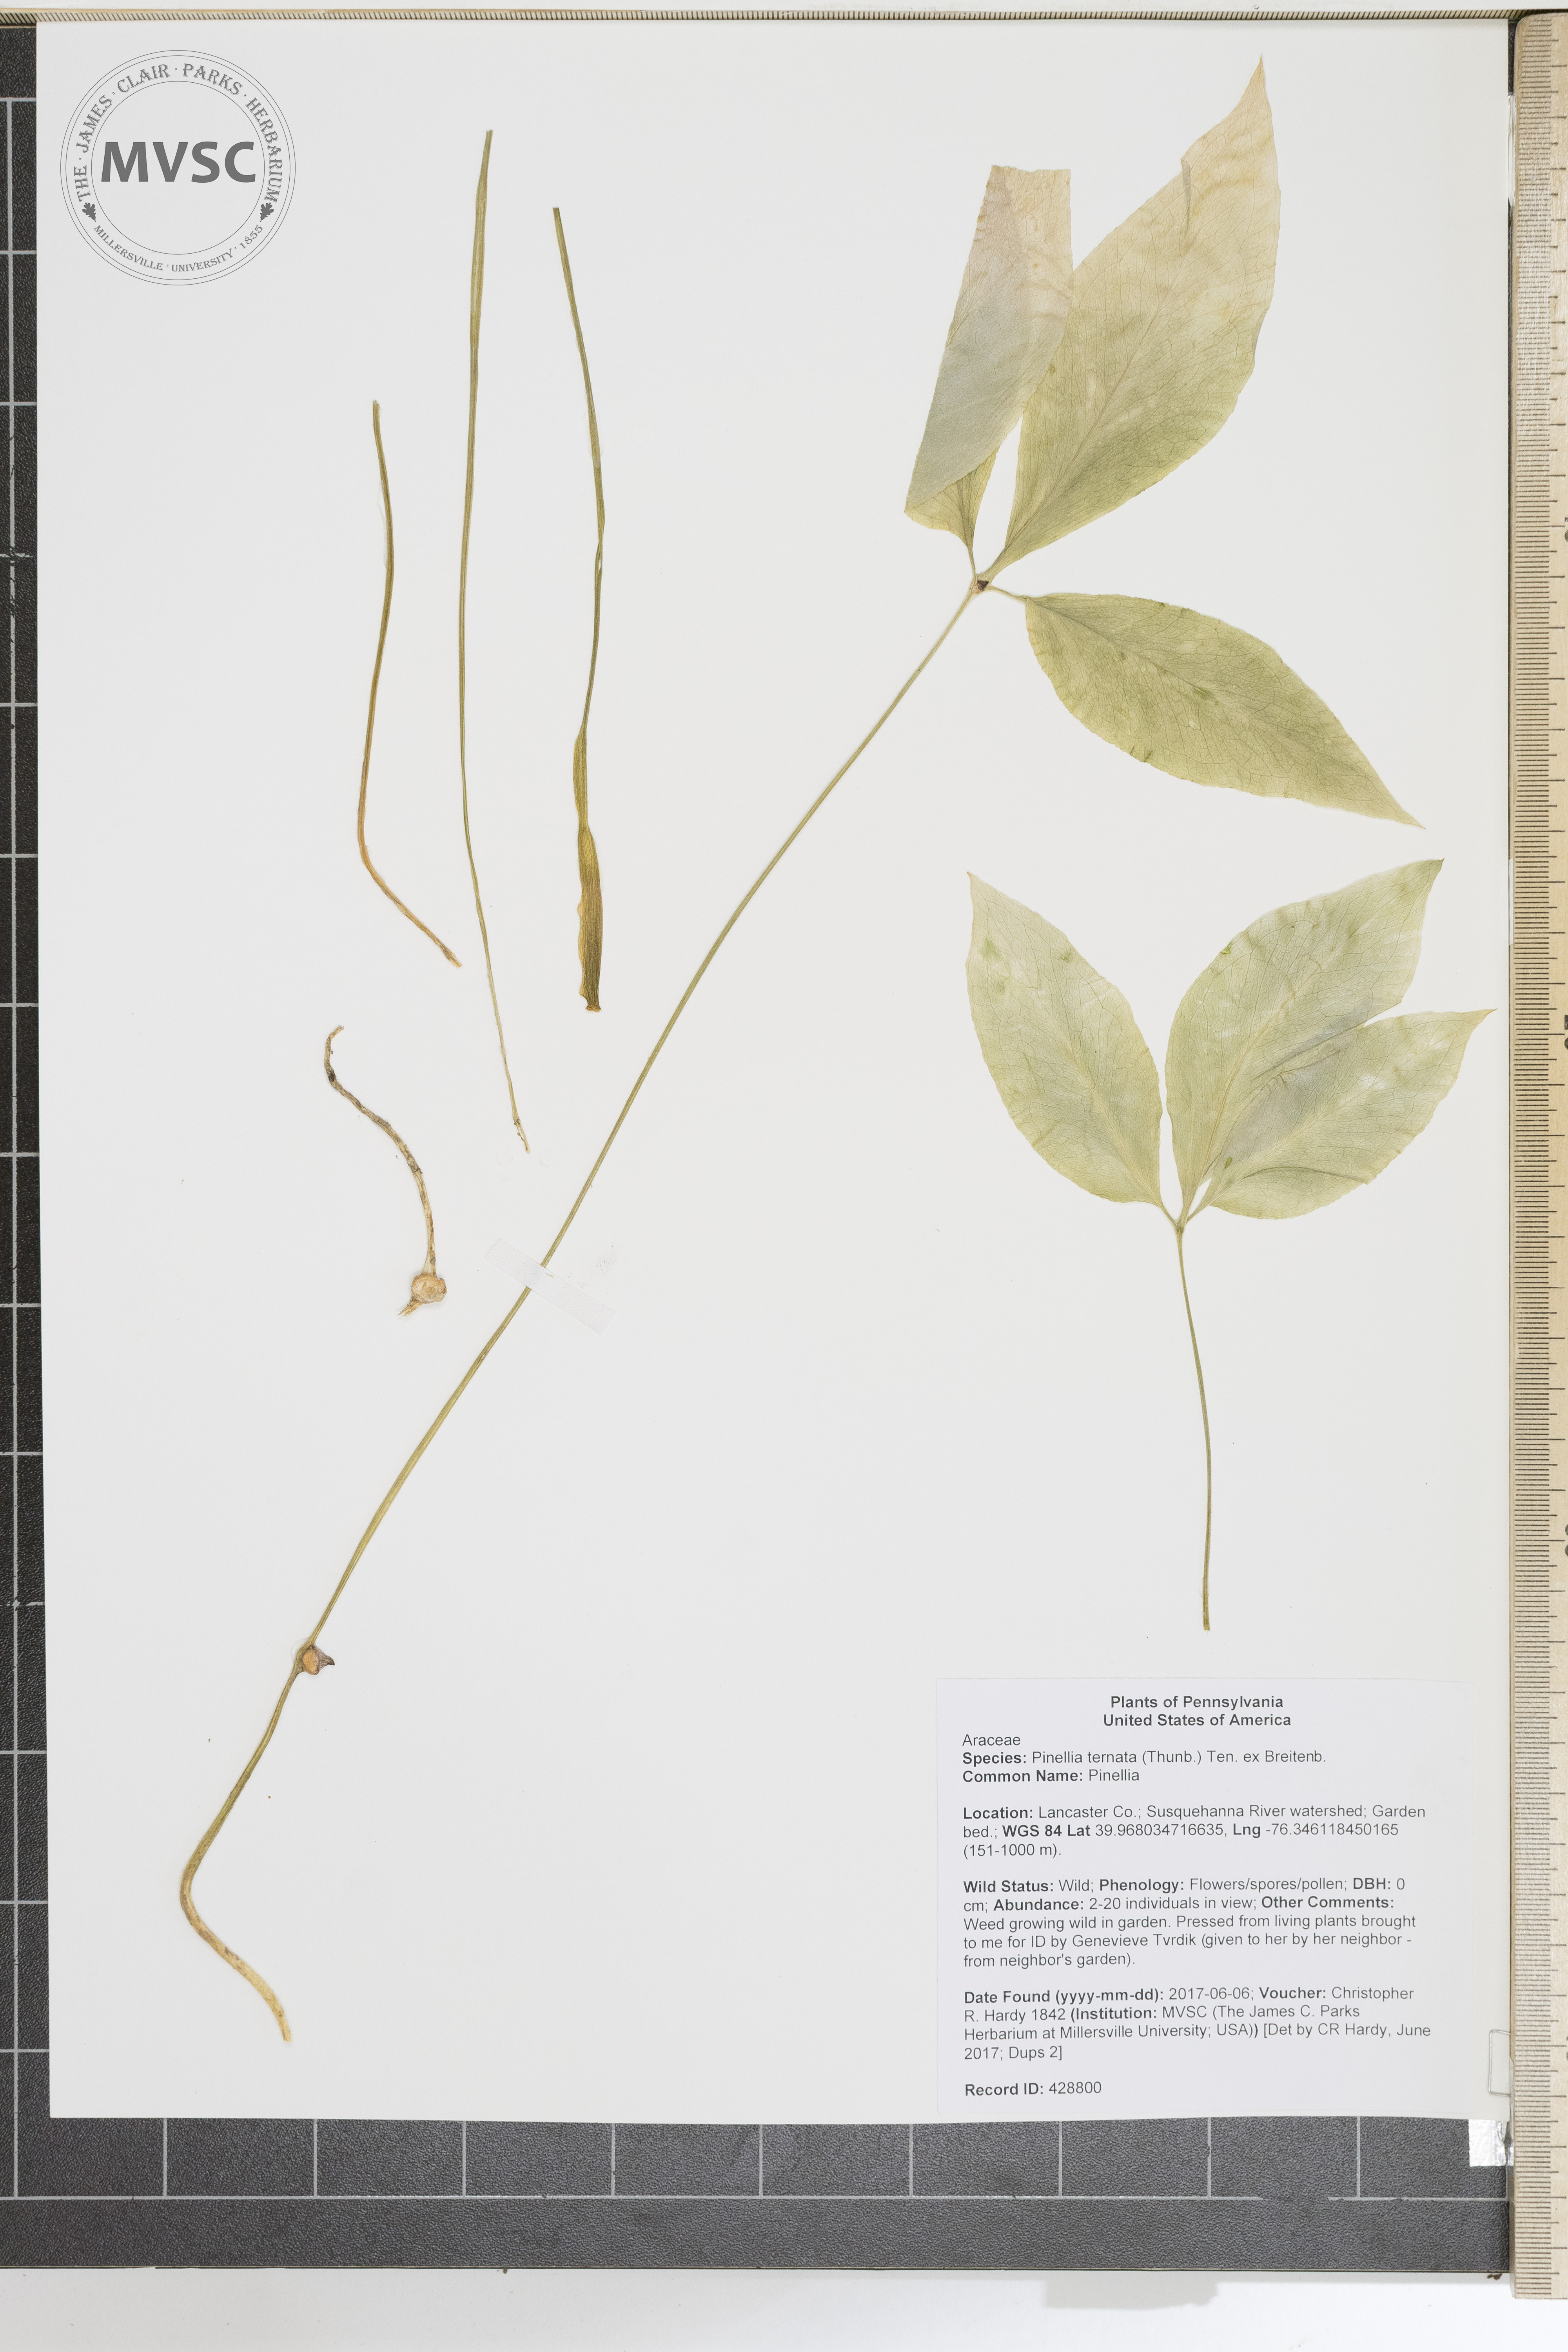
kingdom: Plantae
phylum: Tracheophyta
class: Liliopsida
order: Alismatales
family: Araceae
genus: Pinellia
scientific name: Pinellia ternata
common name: Pinellia
